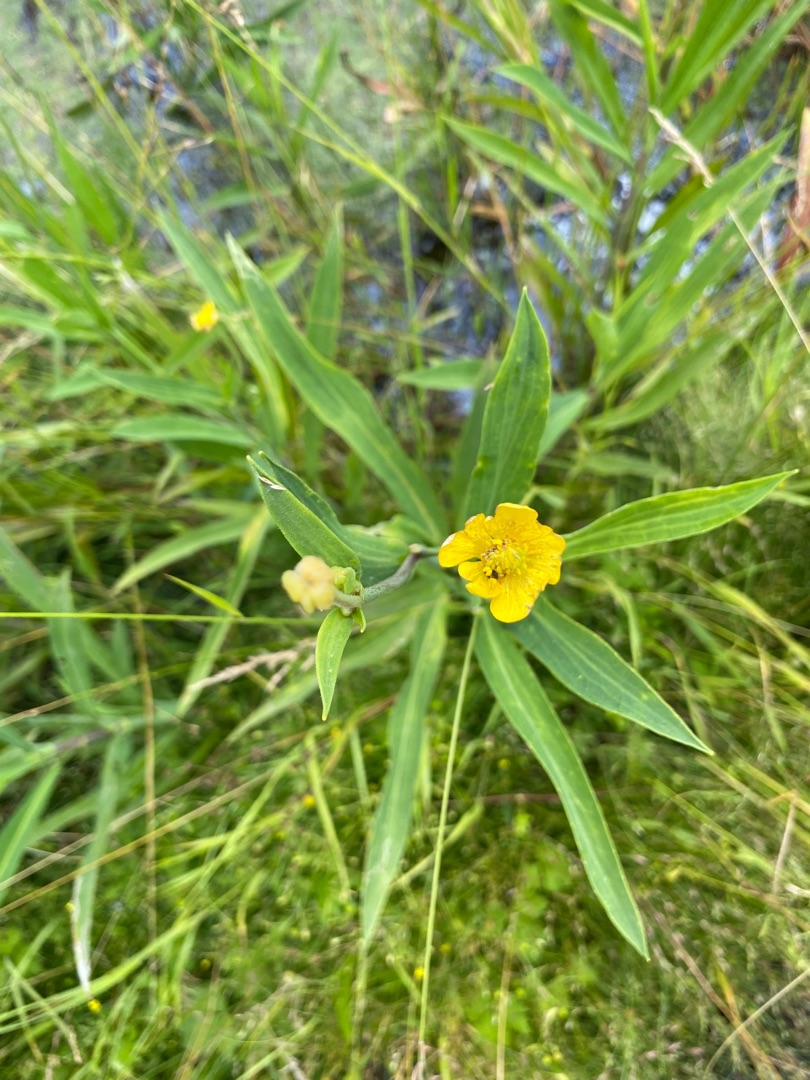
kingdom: Plantae
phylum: Tracheophyta
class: Magnoliopsida
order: Ranunculales
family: Ranunculaceae
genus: Ranunculus
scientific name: Ranunculus lingua
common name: Langbladet ranunkel
